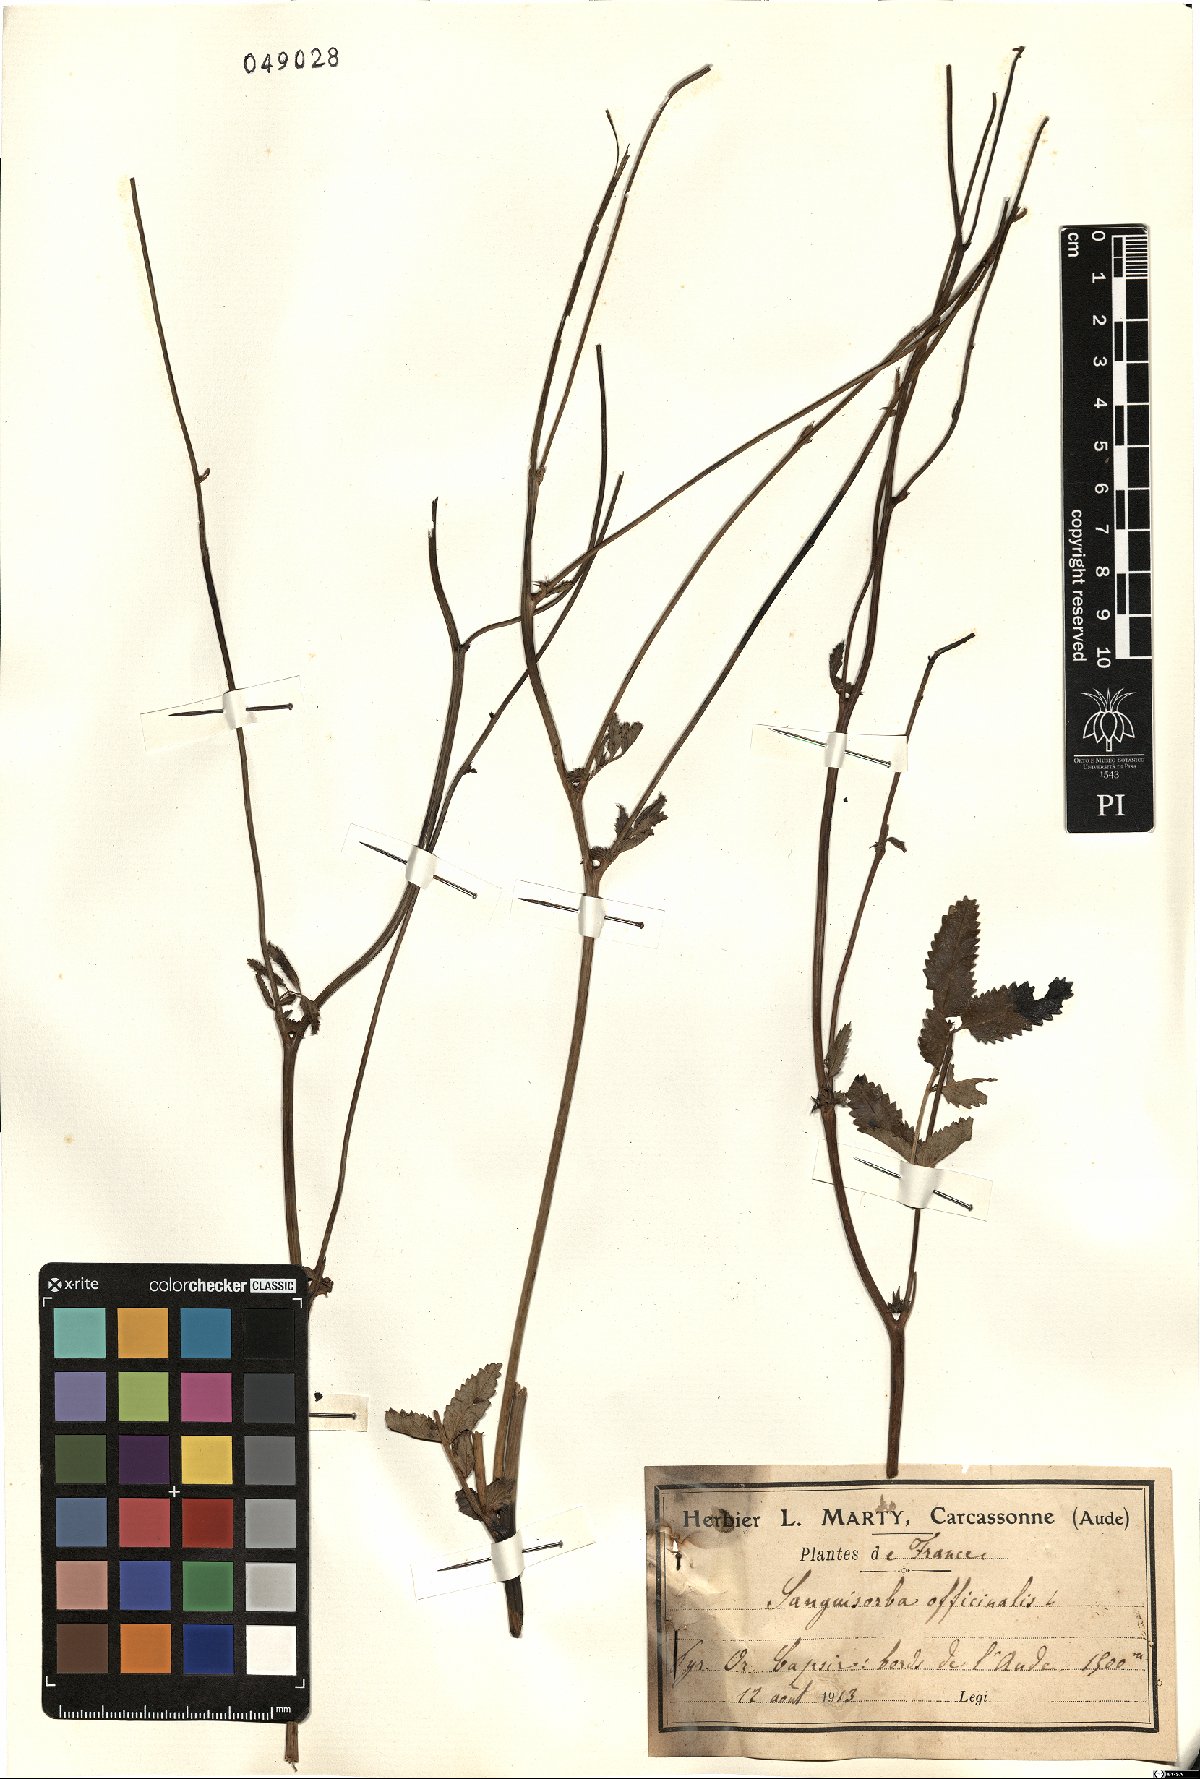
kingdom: Plantae
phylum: Tracheophyta
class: Magnoliopsida
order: Rosales
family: Rosaceae
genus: Sanguisorba
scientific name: Sanguisorba officinalis
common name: Great burnet
